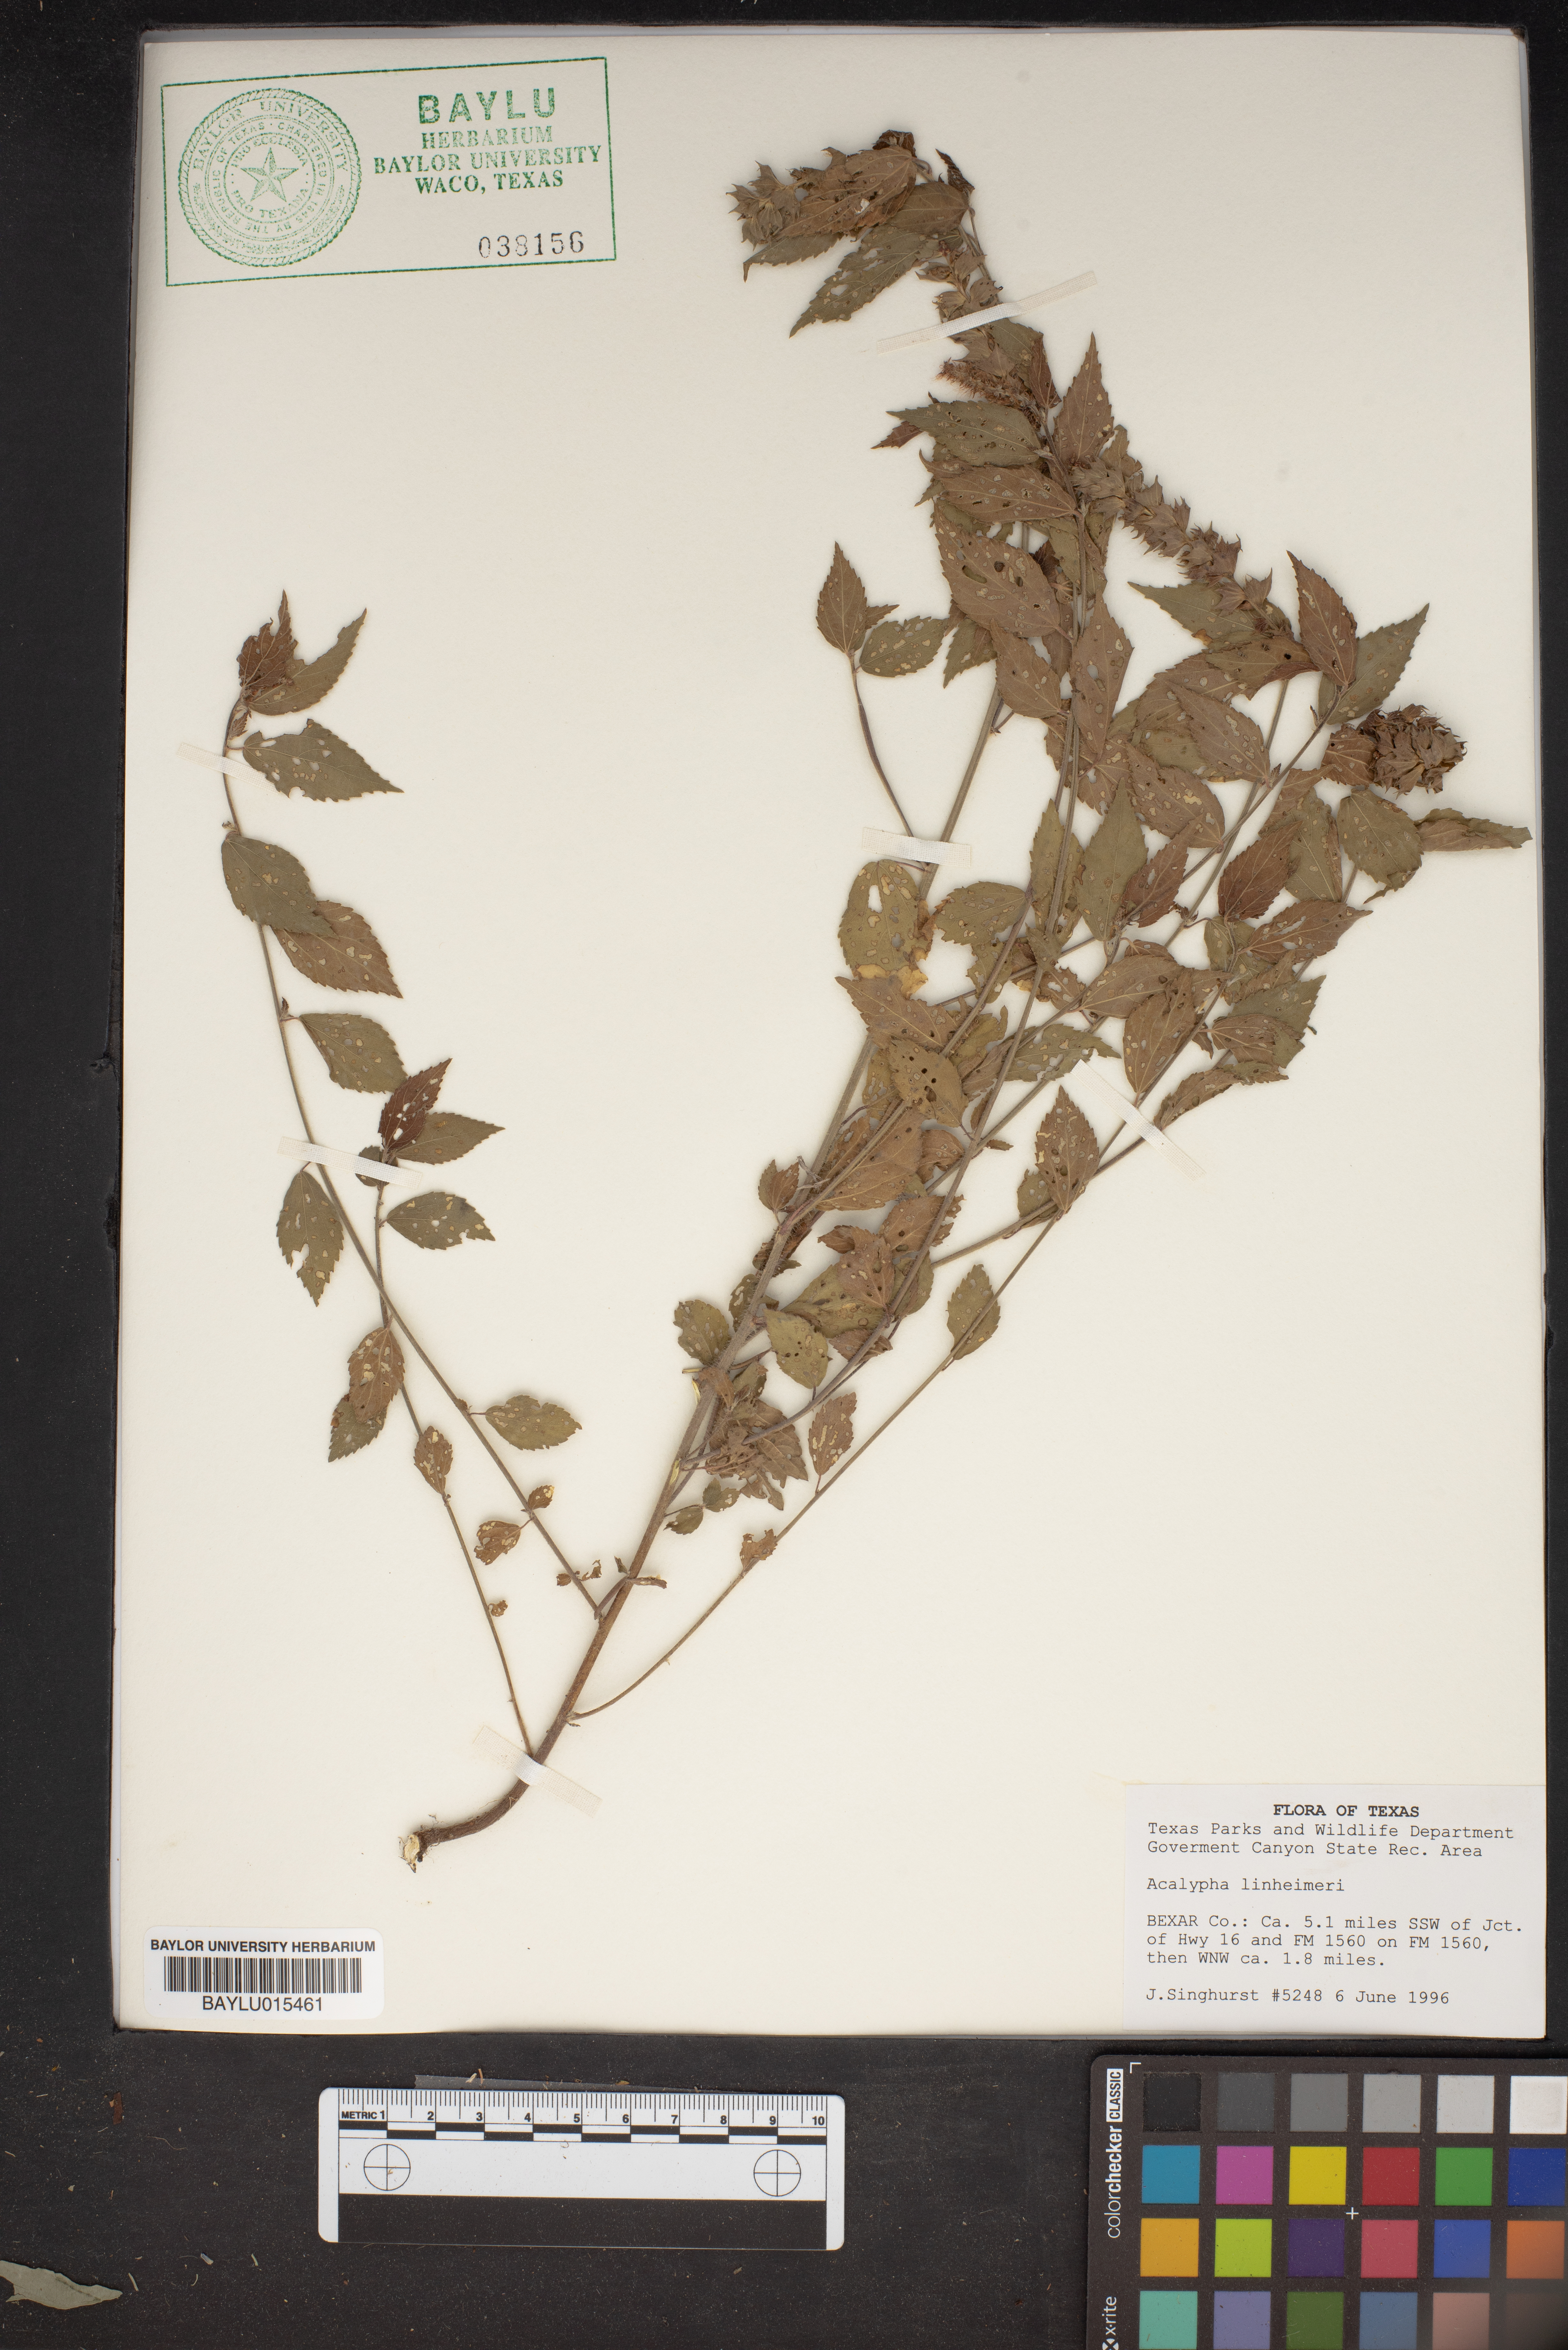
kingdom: Plantae
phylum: Tracheophyta
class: Magnoliopsida
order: Malpighiales
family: Euphorbiaceae
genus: Acalypha
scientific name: Acalypha phleoides
